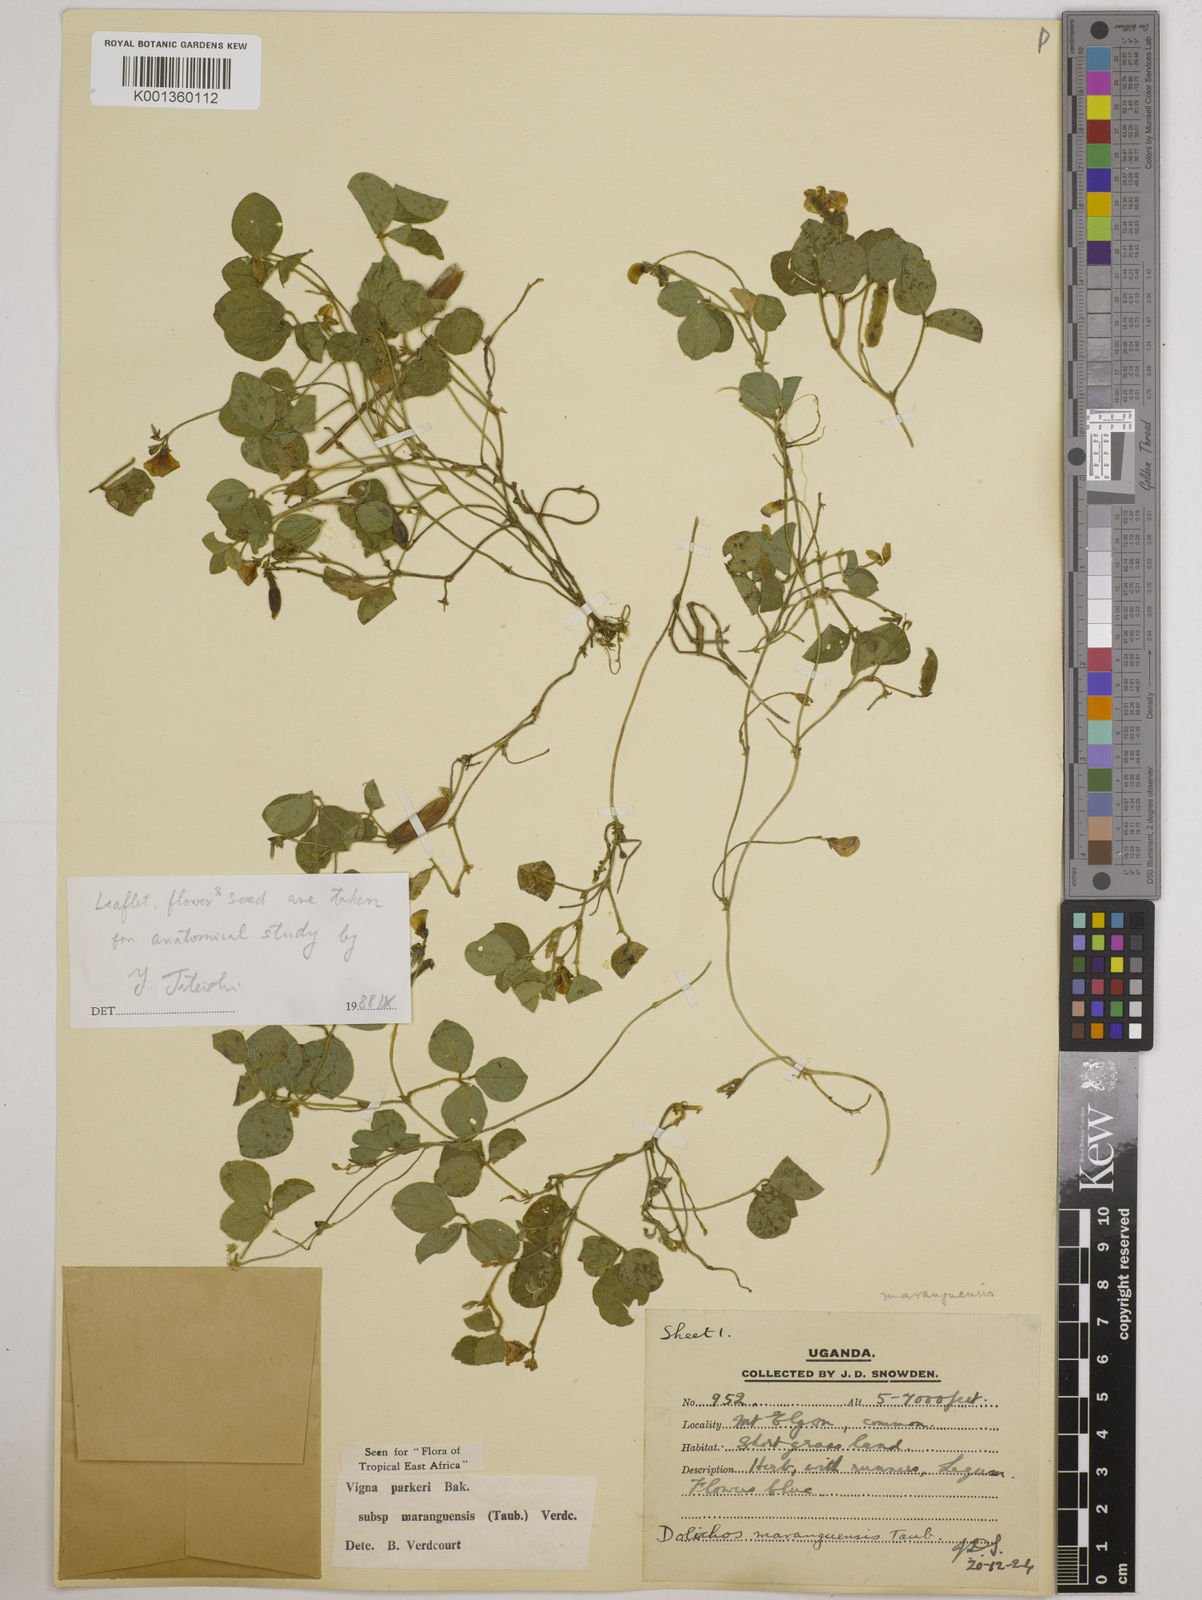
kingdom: Plantae
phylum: Tracheophyta
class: Magnoliopsida
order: Fabales
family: Fabaceae
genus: Vigna
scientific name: Vigna
